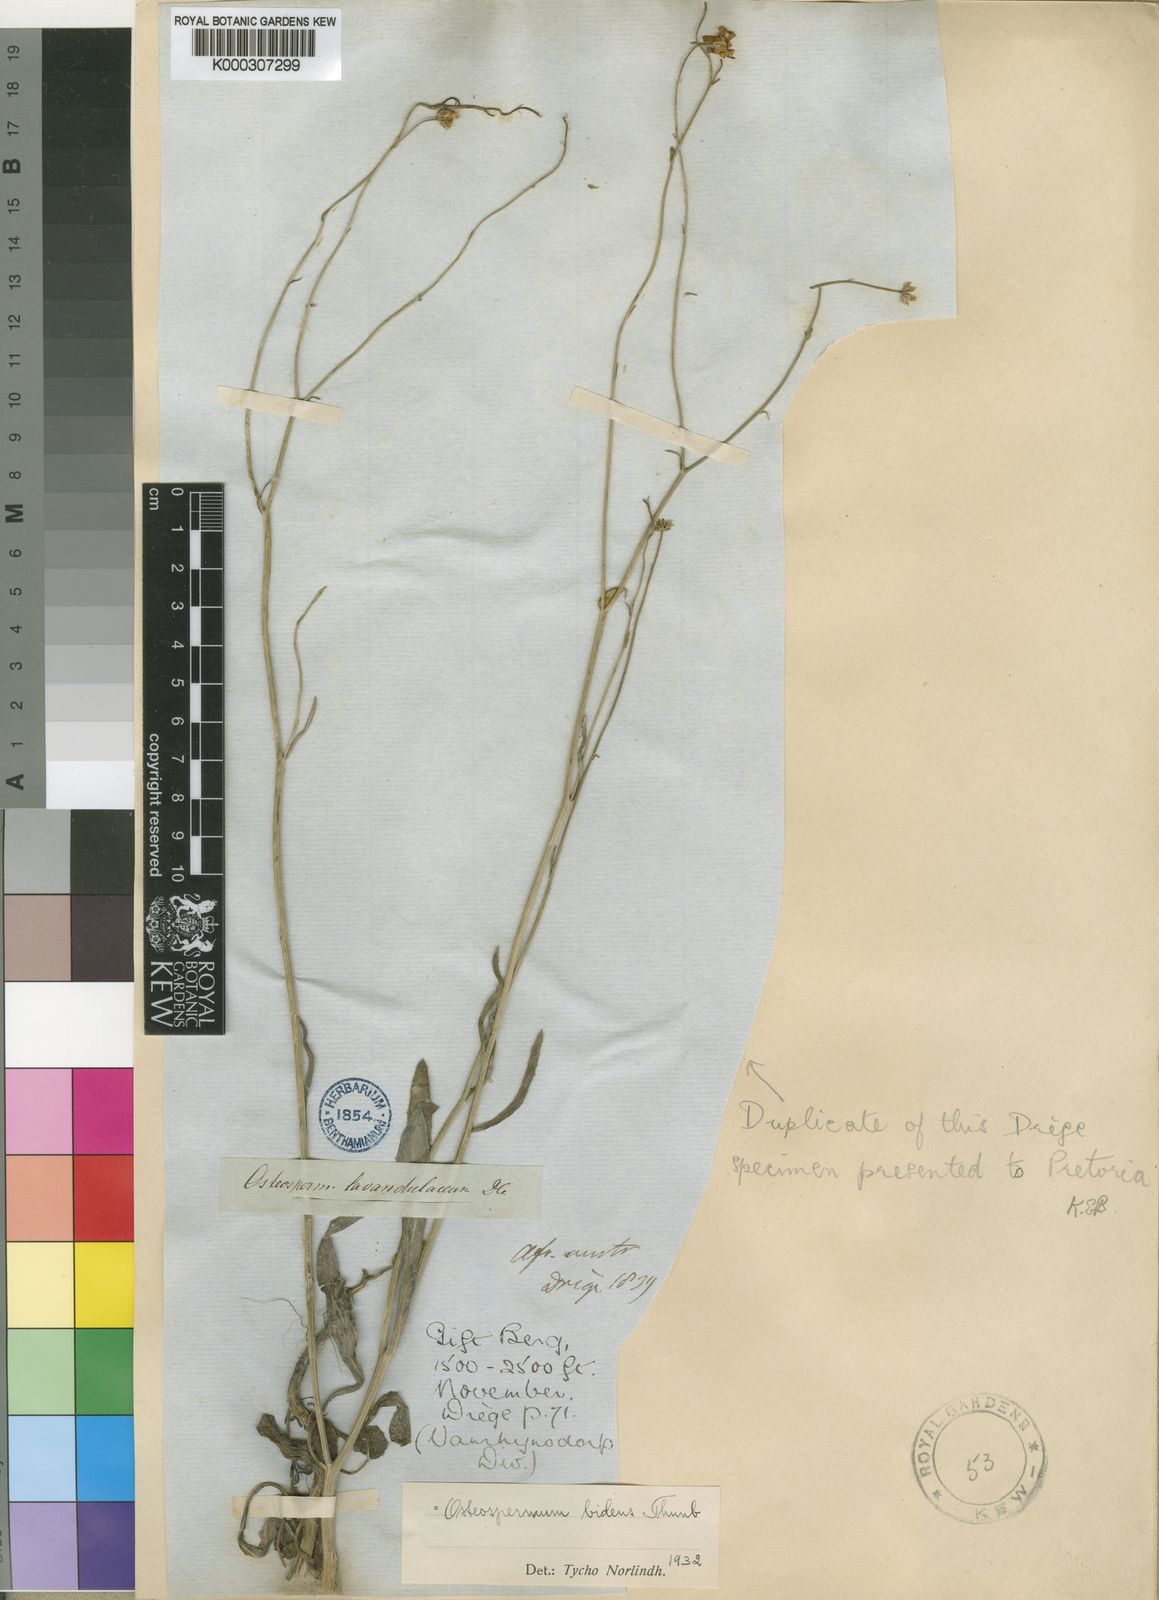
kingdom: Plantae
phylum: Tracheophyta
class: Magnoliopsida
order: Asterales
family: Asteraceae
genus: Osteospermum
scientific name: Osteospermum bidens
